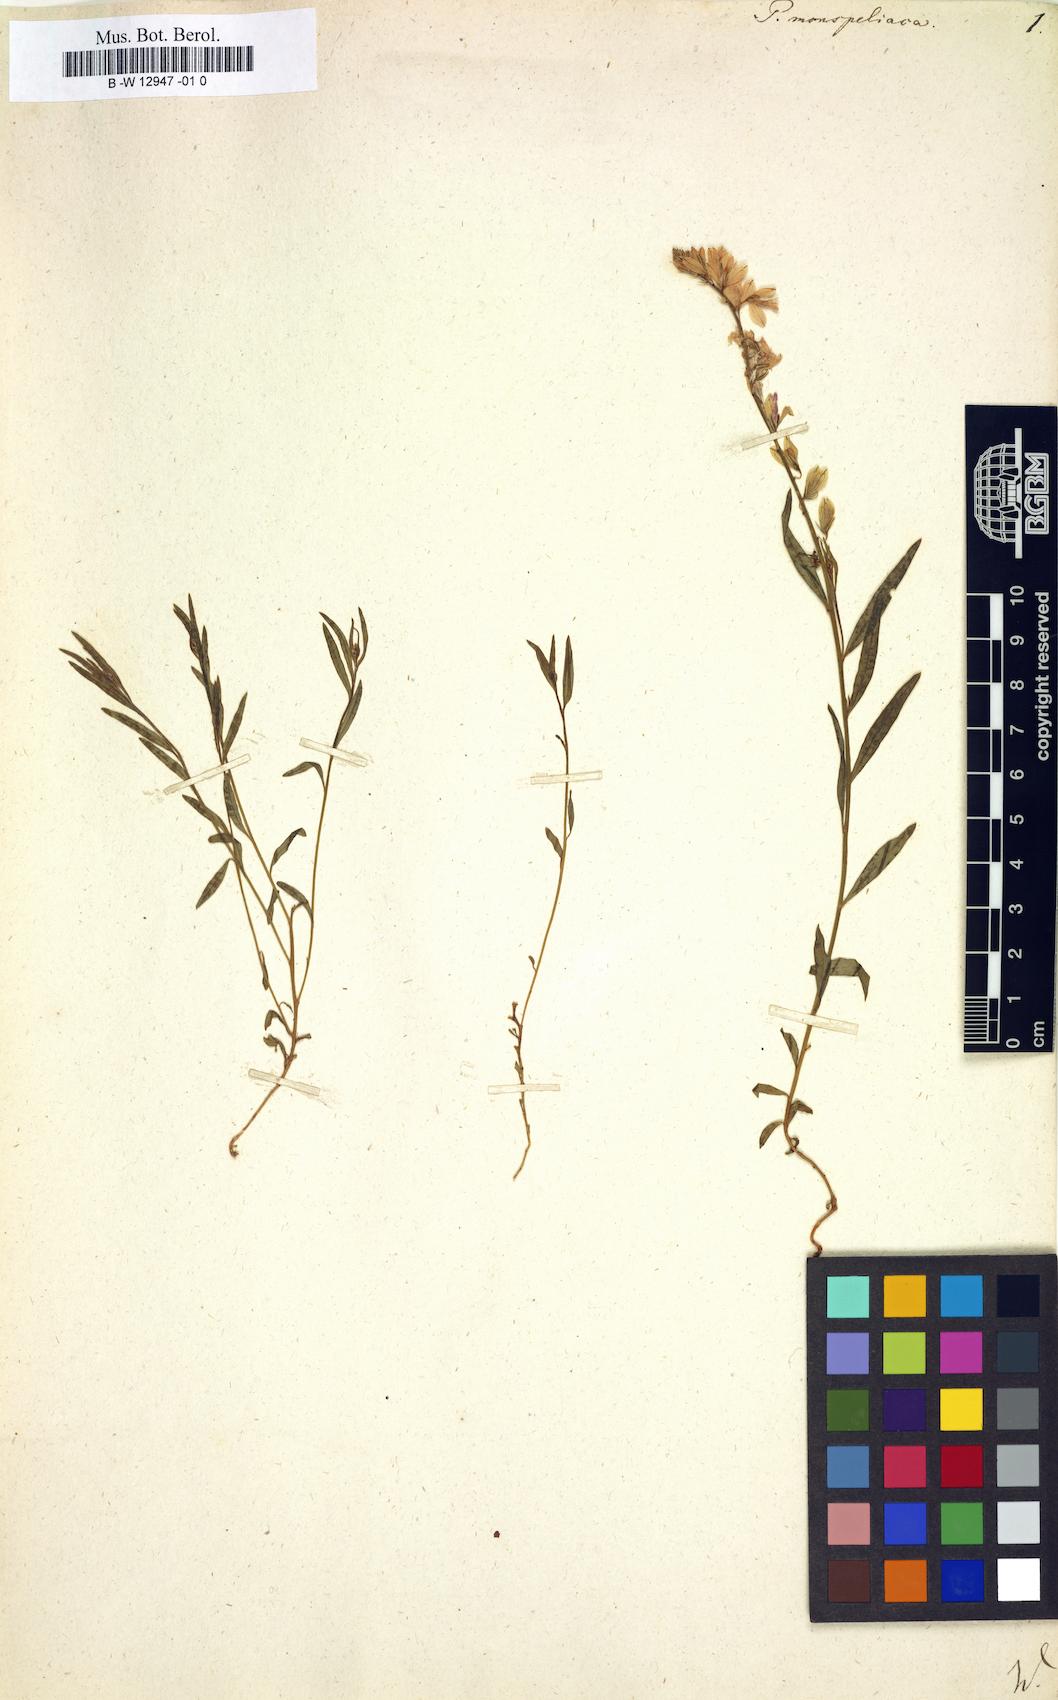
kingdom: Plantae
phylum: Tracheophyta
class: Magnoliopsida
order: Fabales
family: Polygalaceae
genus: Polygala
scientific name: Polygala monspeliaca
